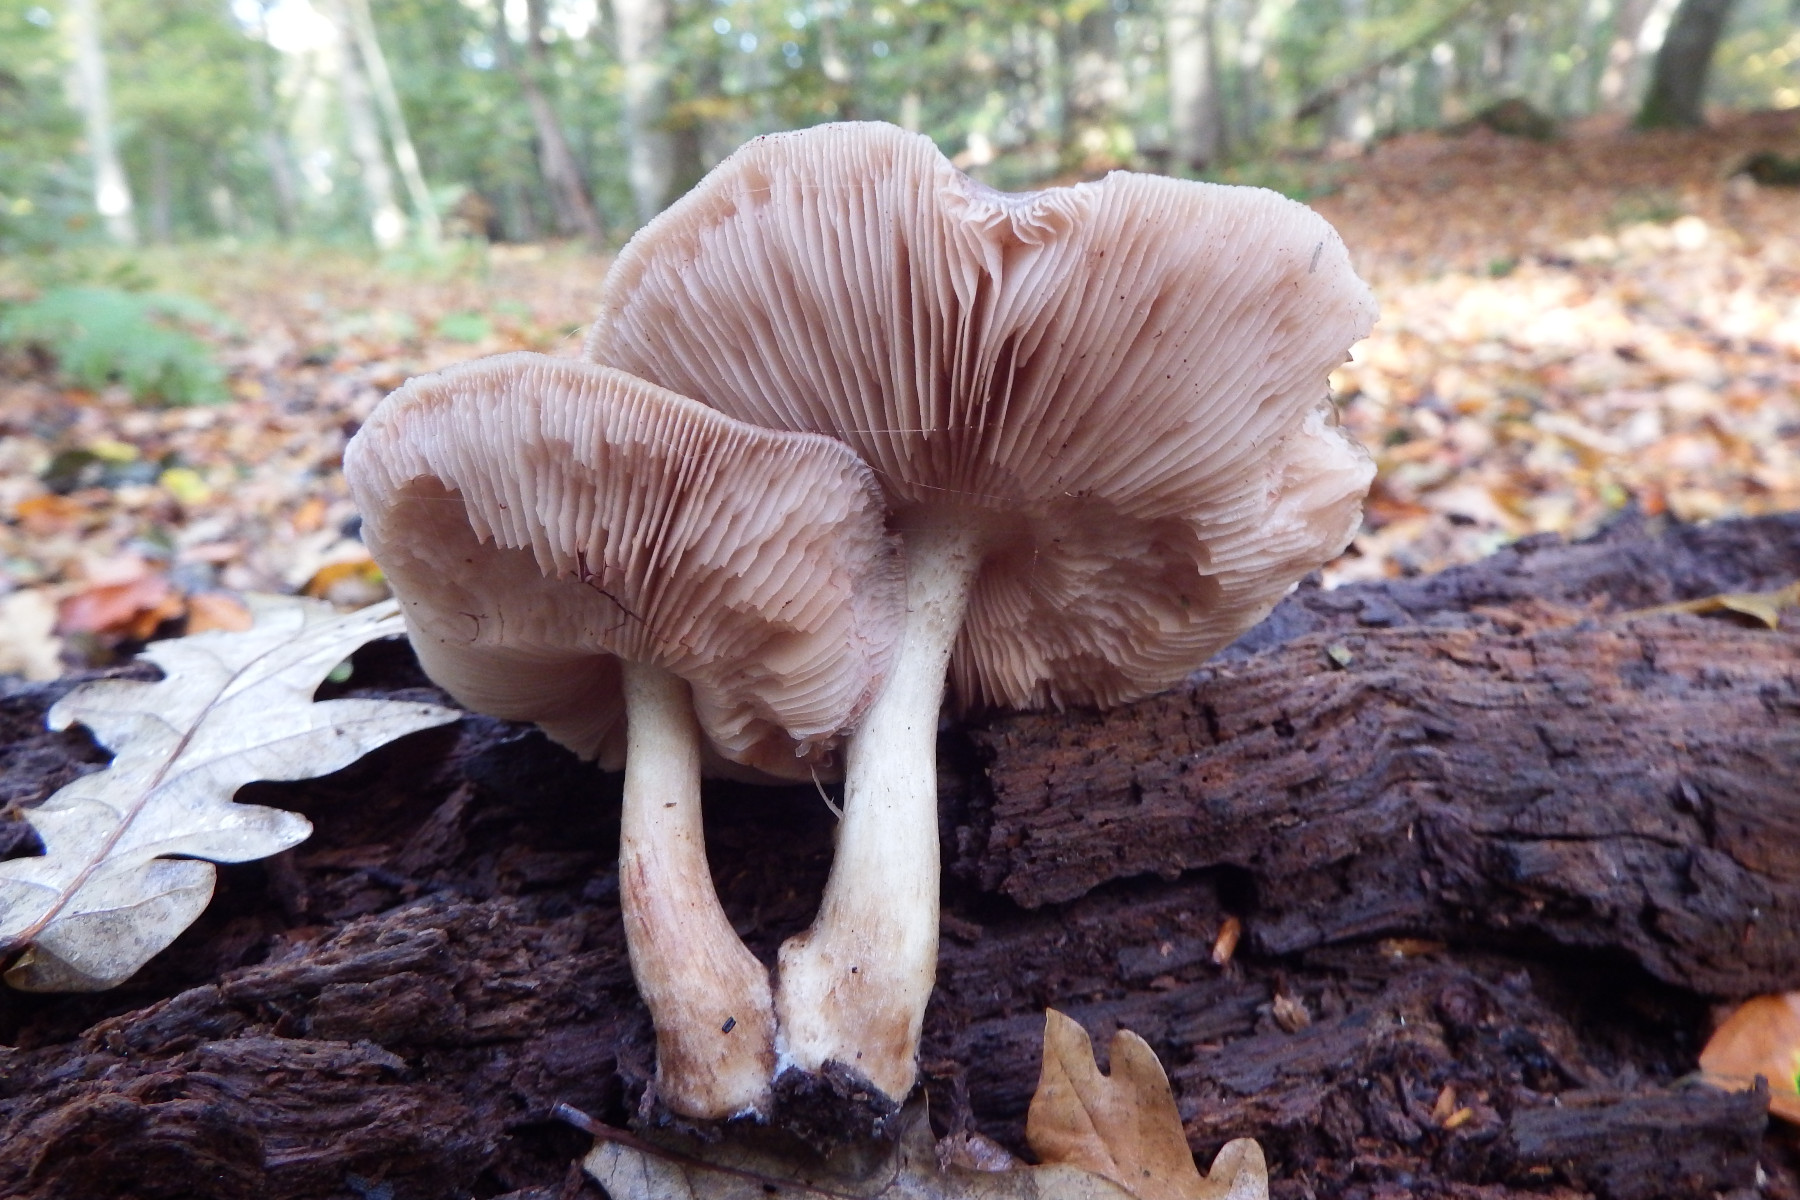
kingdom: Fungi
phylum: Basidiomycota
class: Agaricomycetes
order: Agaricales
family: Pluteaceae
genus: Pluteus
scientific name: Pluteus cervinus
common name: sodfarvet skærmhat
